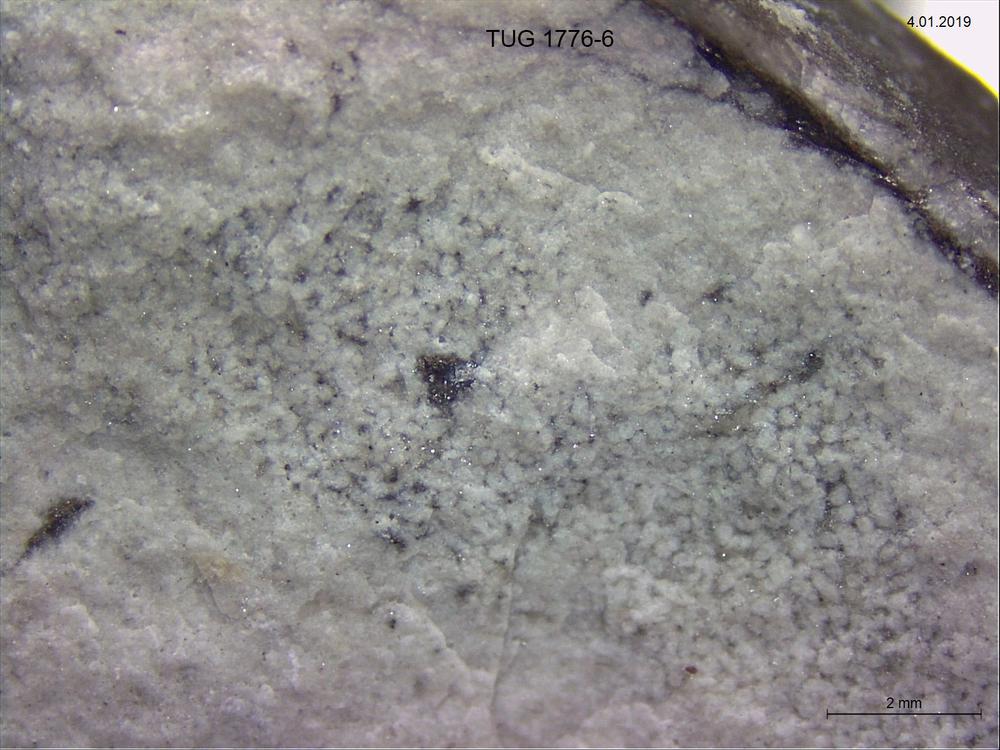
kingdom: Animalia
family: Coprulidae
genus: Coprulus
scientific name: Coprulus
